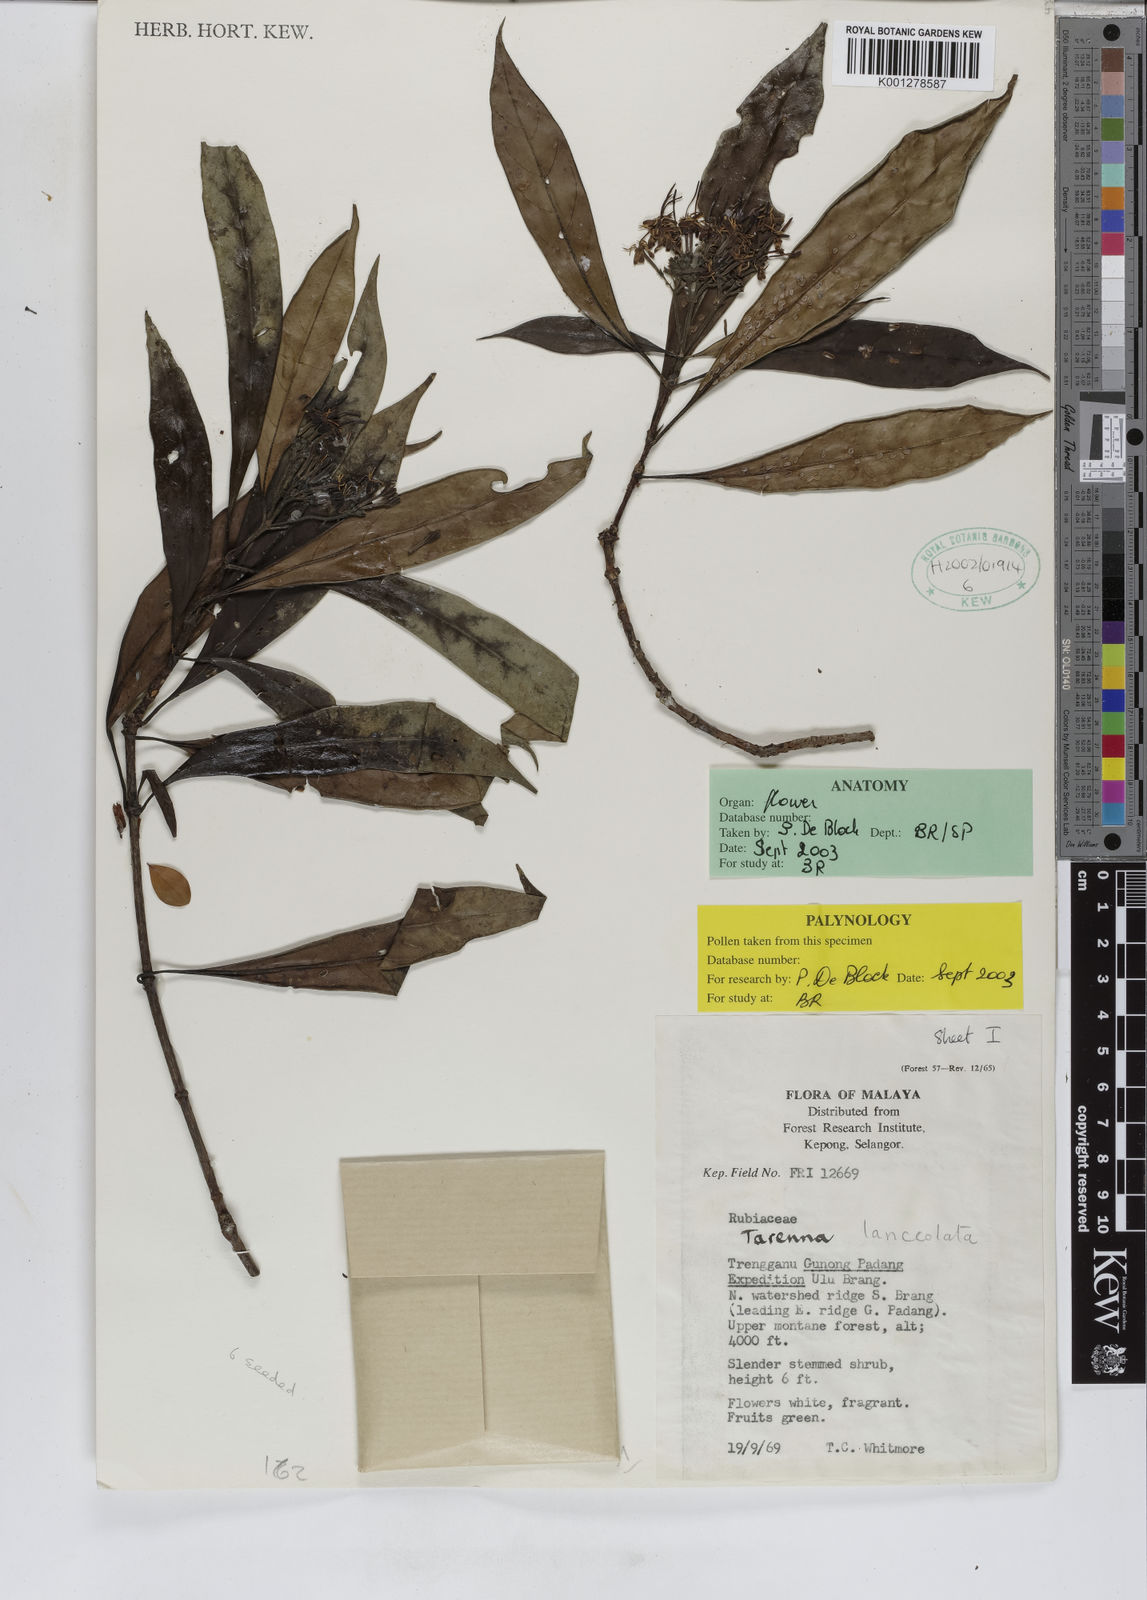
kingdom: Plantae
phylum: Tracheophyta
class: Magnoliopsida
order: Gentianales
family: Rubiaceae
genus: Tarenna
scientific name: Tarenna lanceolata
